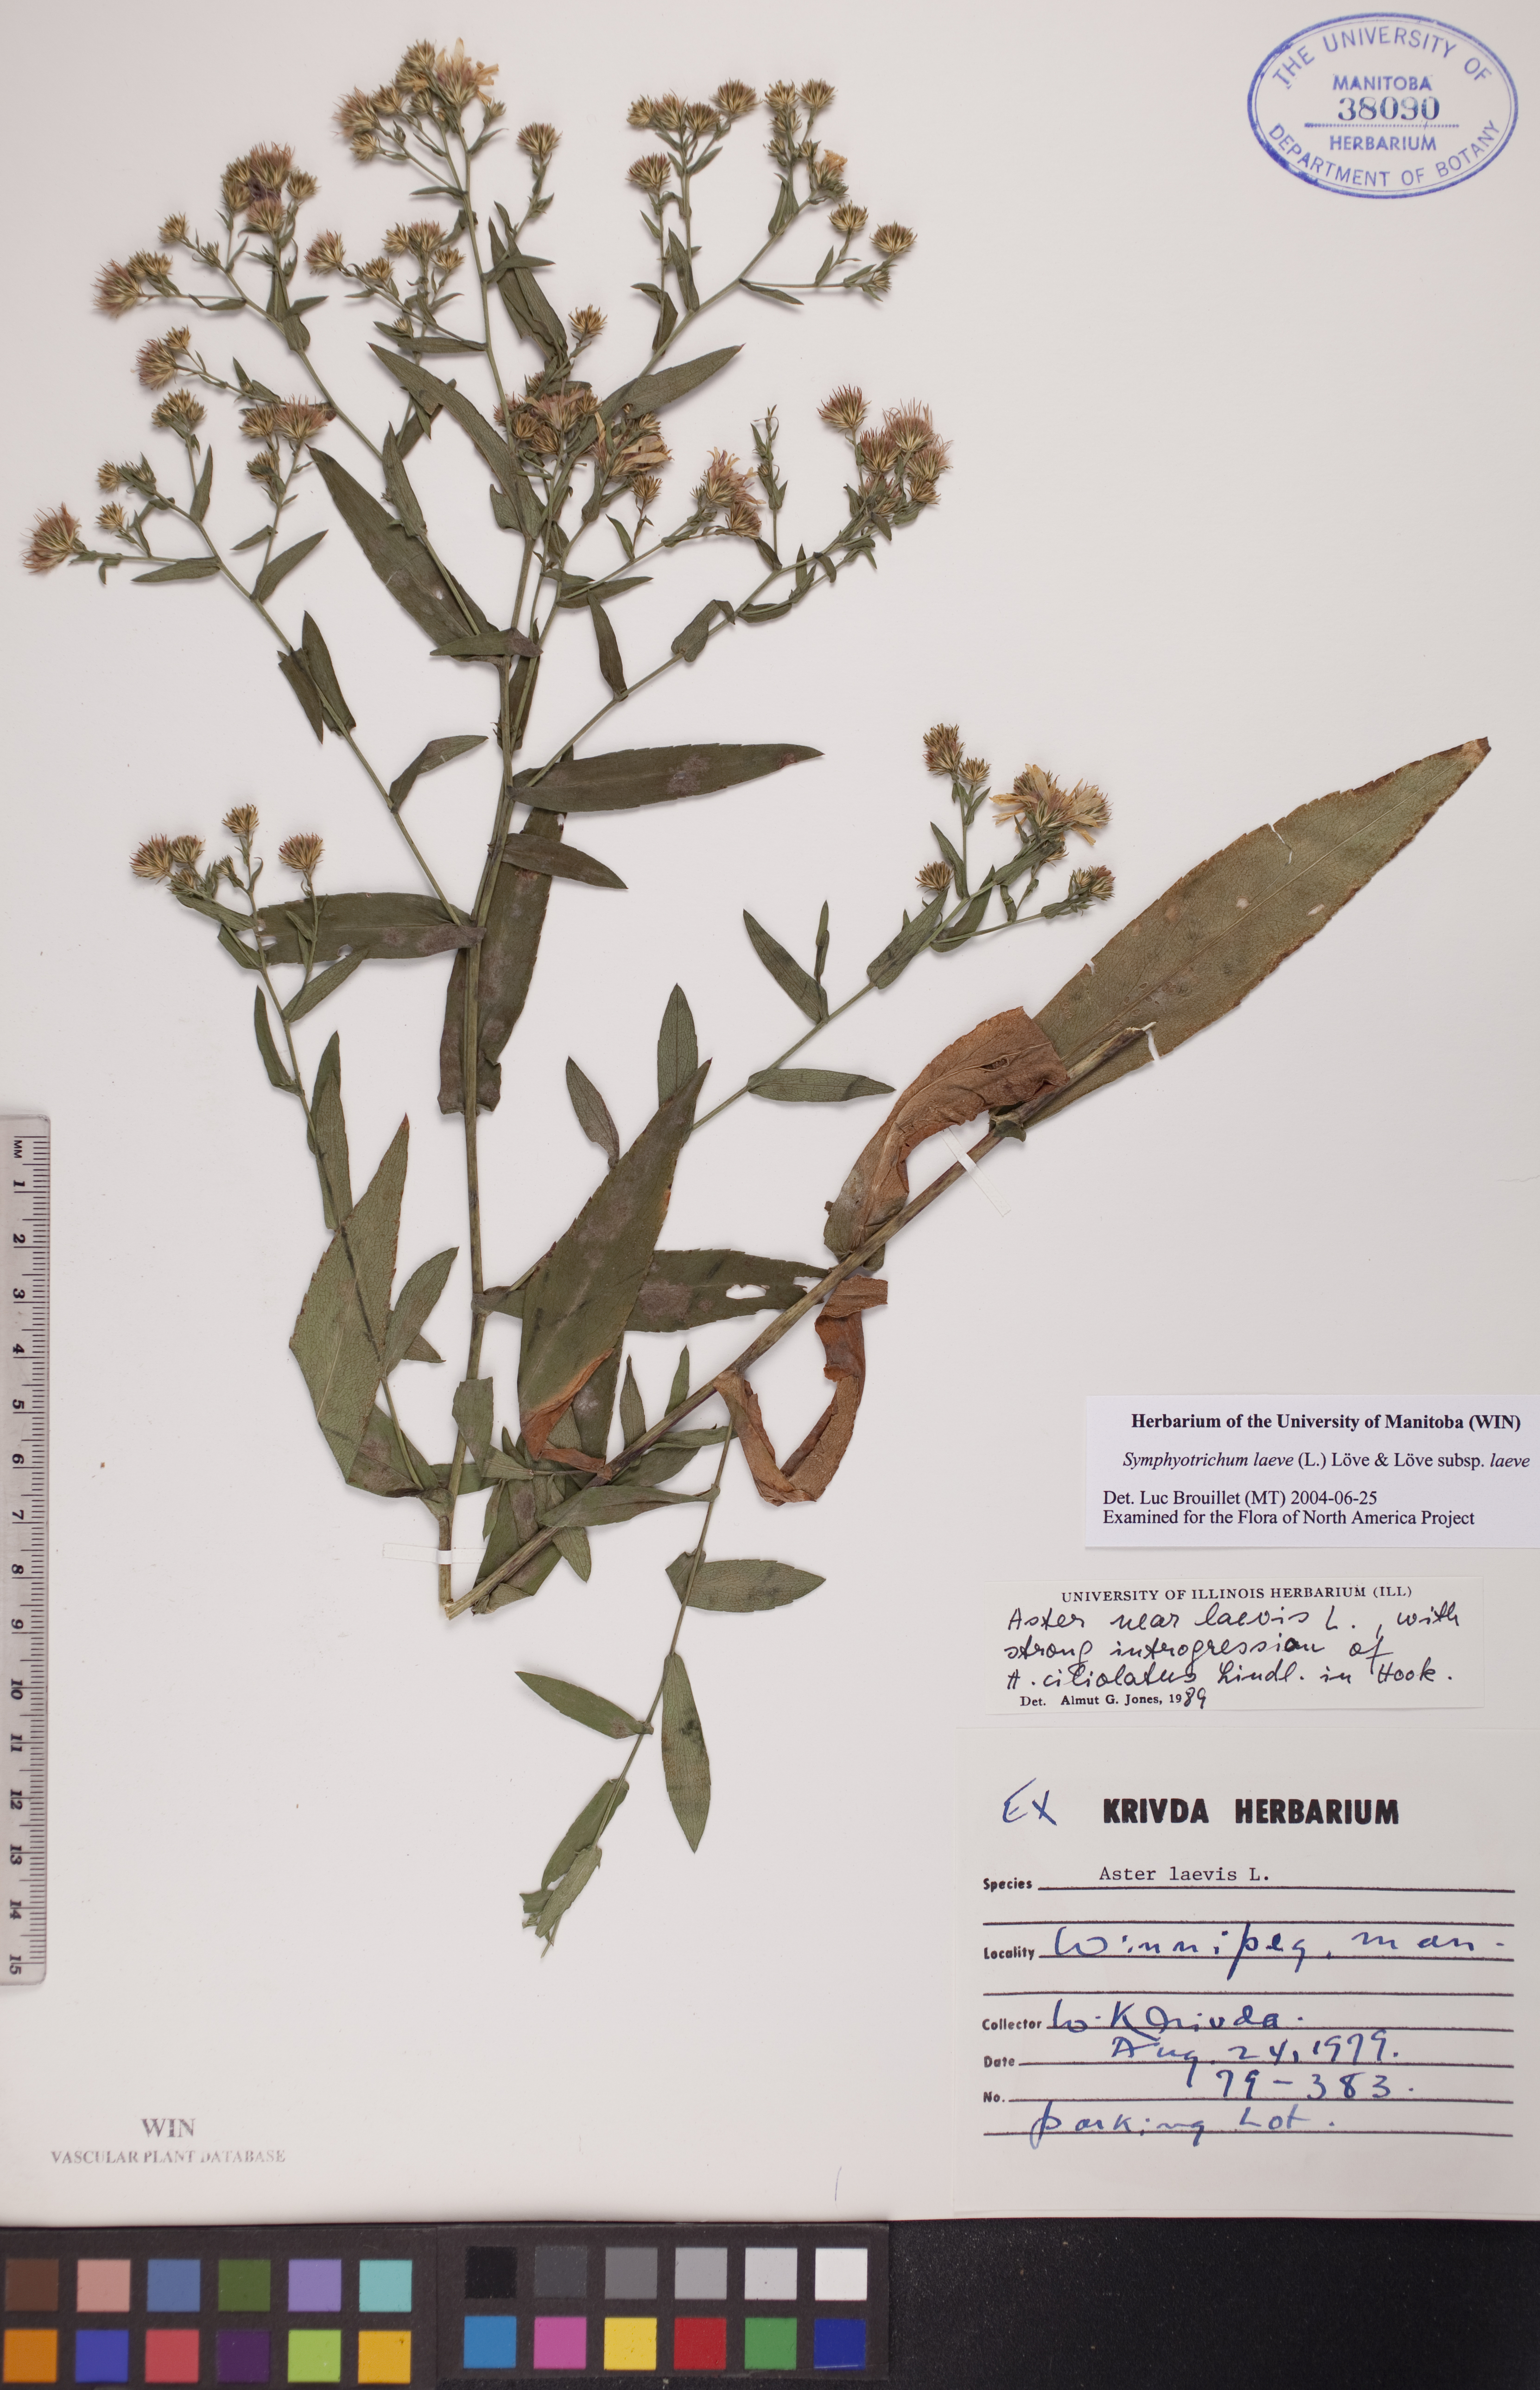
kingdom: Plantae
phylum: Tracheophyta
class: Magnoliopsida
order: Asterales
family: Asteraceae
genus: Symphyotrichum
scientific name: Symphyotrichum laeve
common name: Glaucous aster
